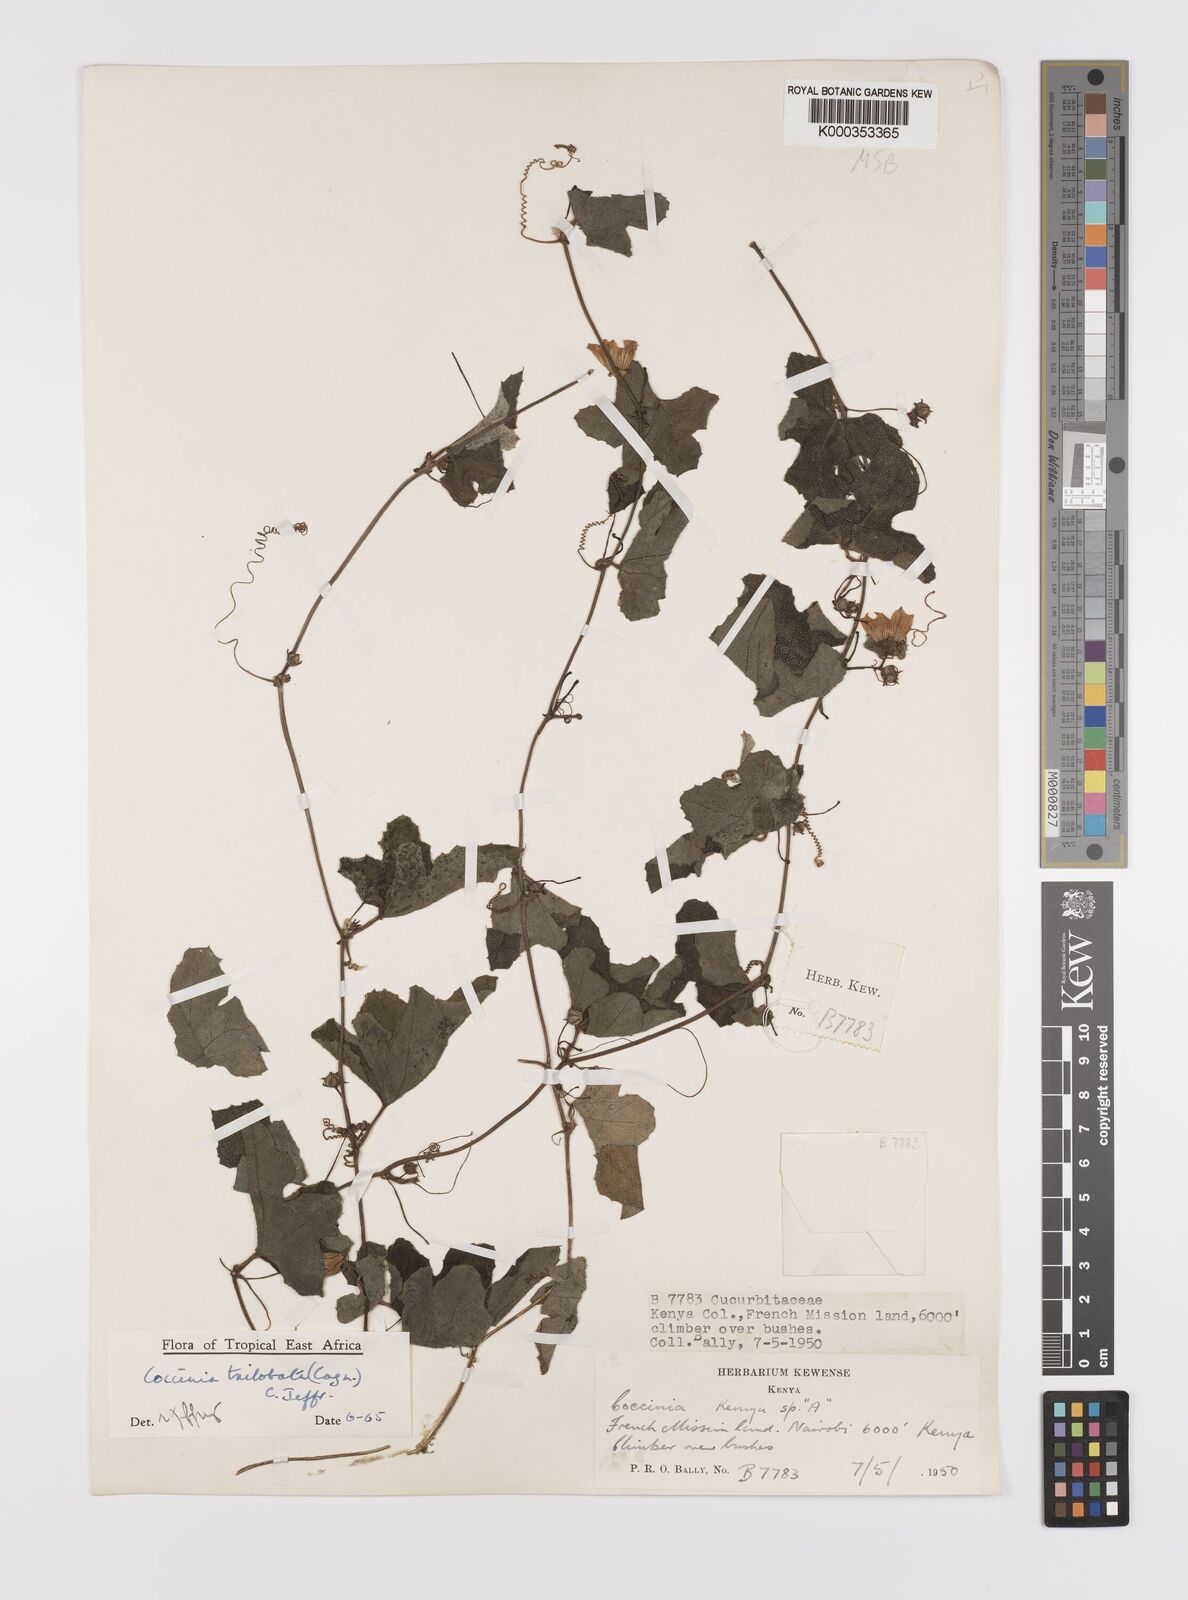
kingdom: Plantae
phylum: Tracheophyta
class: Magnoliopsida
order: Cucurbitales
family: Cucurbitaceae
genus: Coccinia
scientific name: Coccinia trilobata
